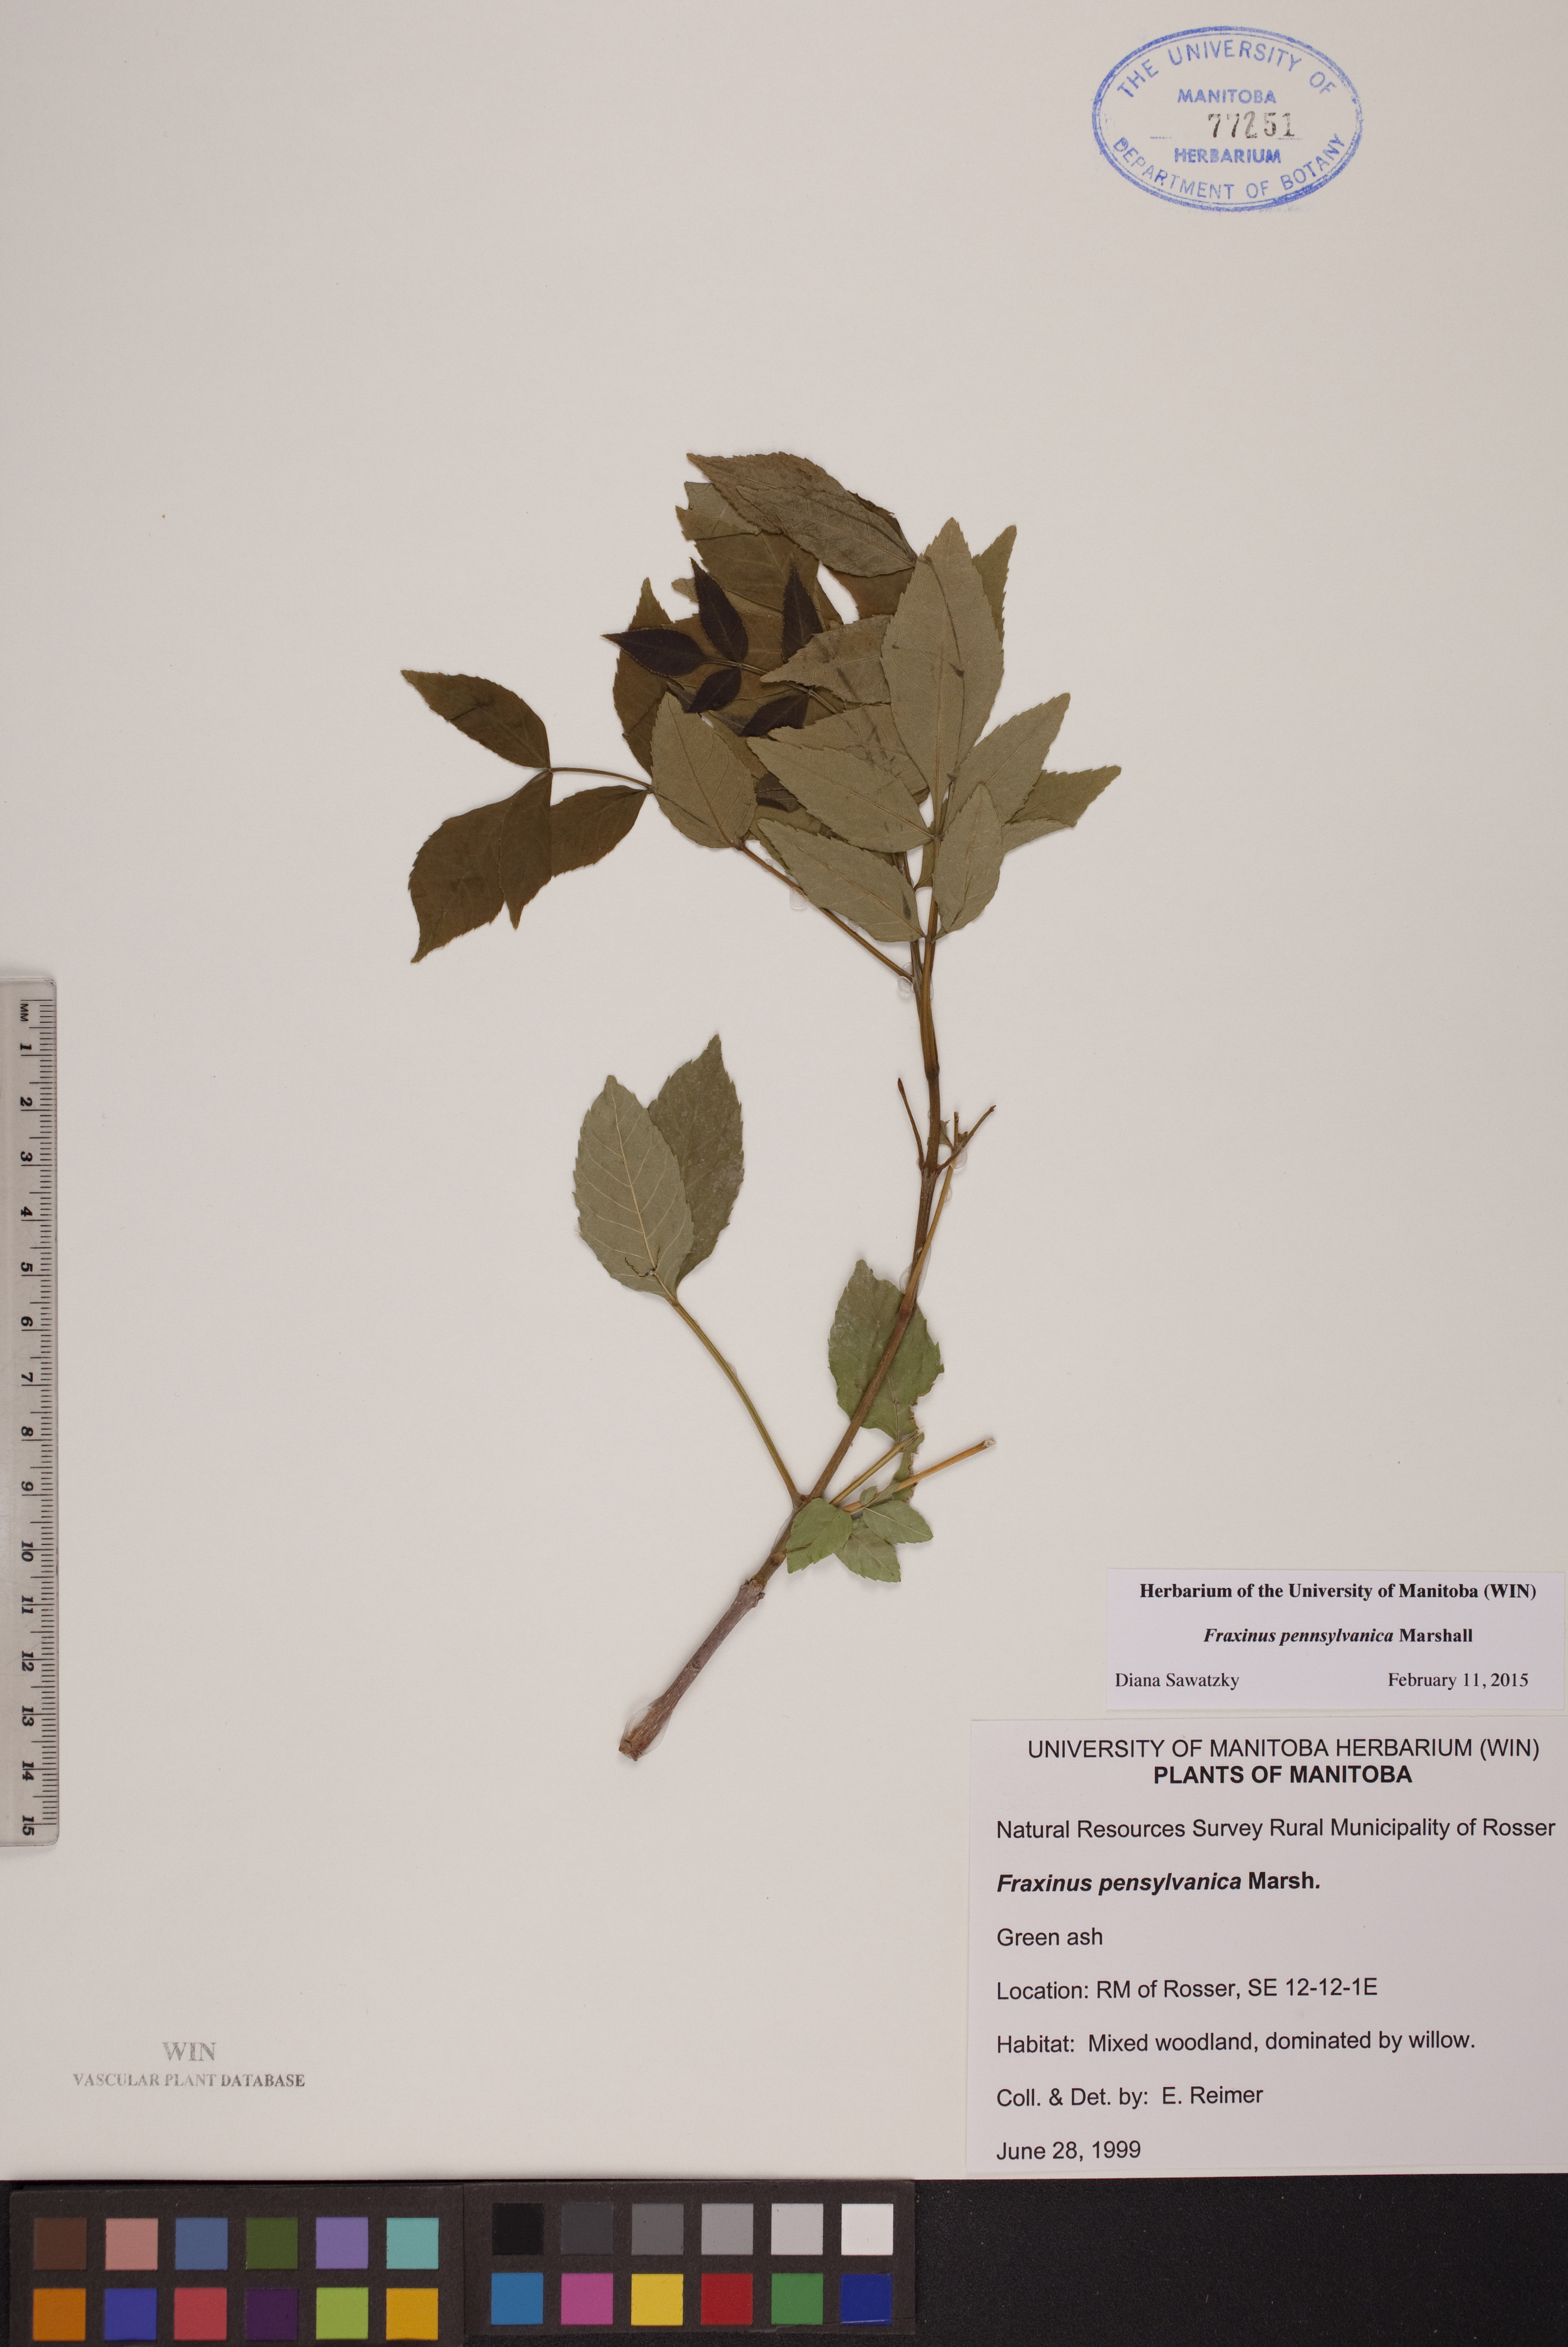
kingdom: Plantae
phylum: Tracheophyta
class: Magnoliopsida
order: Lamiales
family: Oleaceae
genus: Fraxinus
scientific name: Fraxinus pennsylvanica
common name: Green ash
